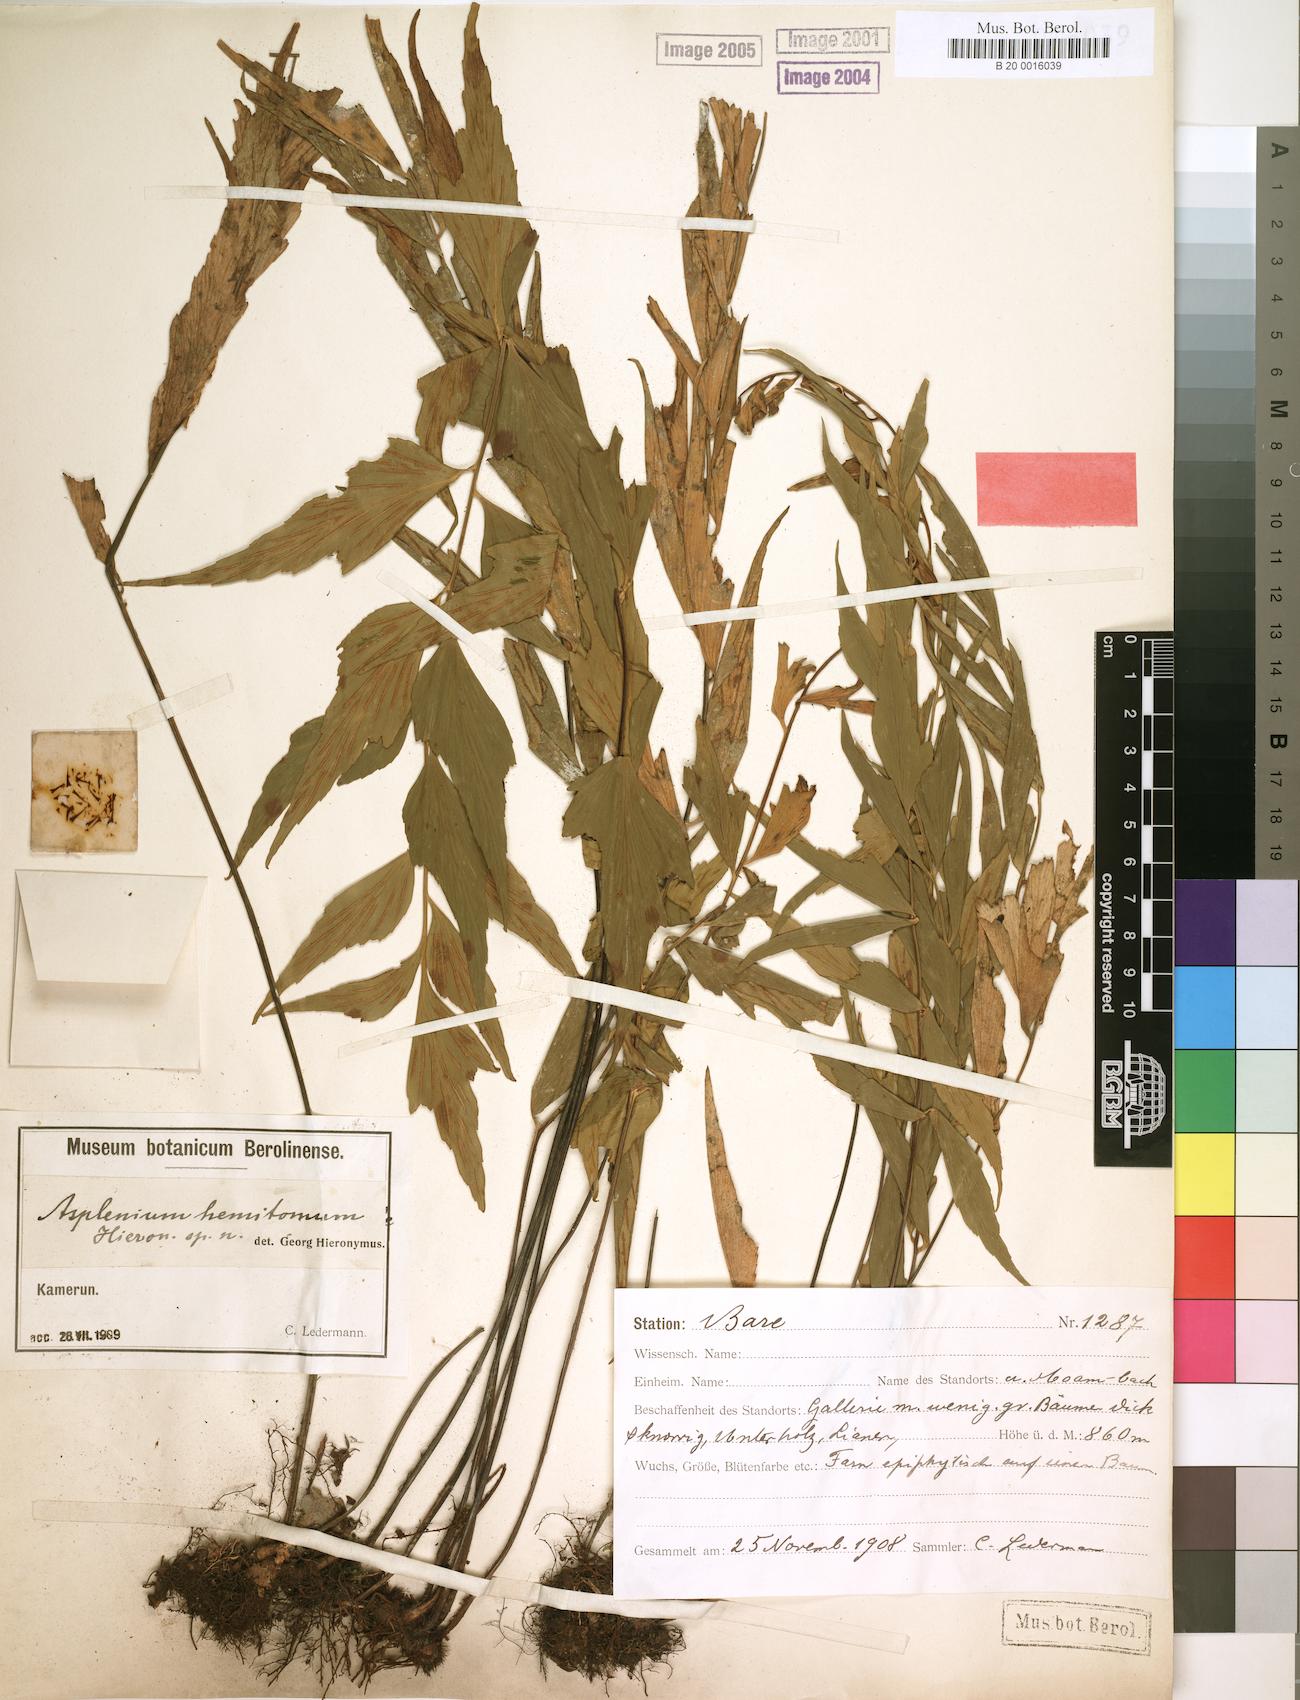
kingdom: Plantae
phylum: Tracheophyta
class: Polypodiopsida
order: Polypodiales
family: Aspleniaceae
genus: Asplenium
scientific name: Asplenium hemitomum
